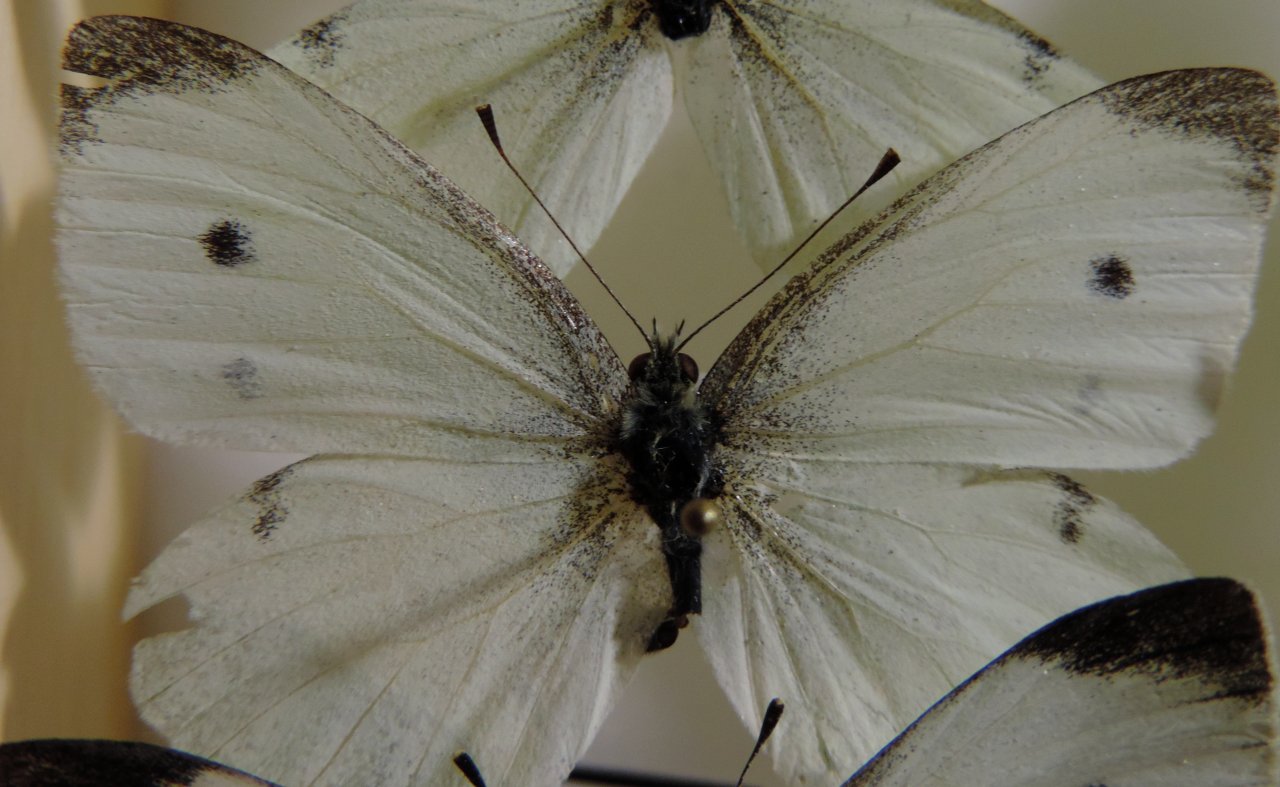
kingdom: Animalia
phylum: Arthropoda
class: Insecta
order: Lepidoptera
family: Pieridae
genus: Pieris
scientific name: Pieris rapae
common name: Cabbage White
